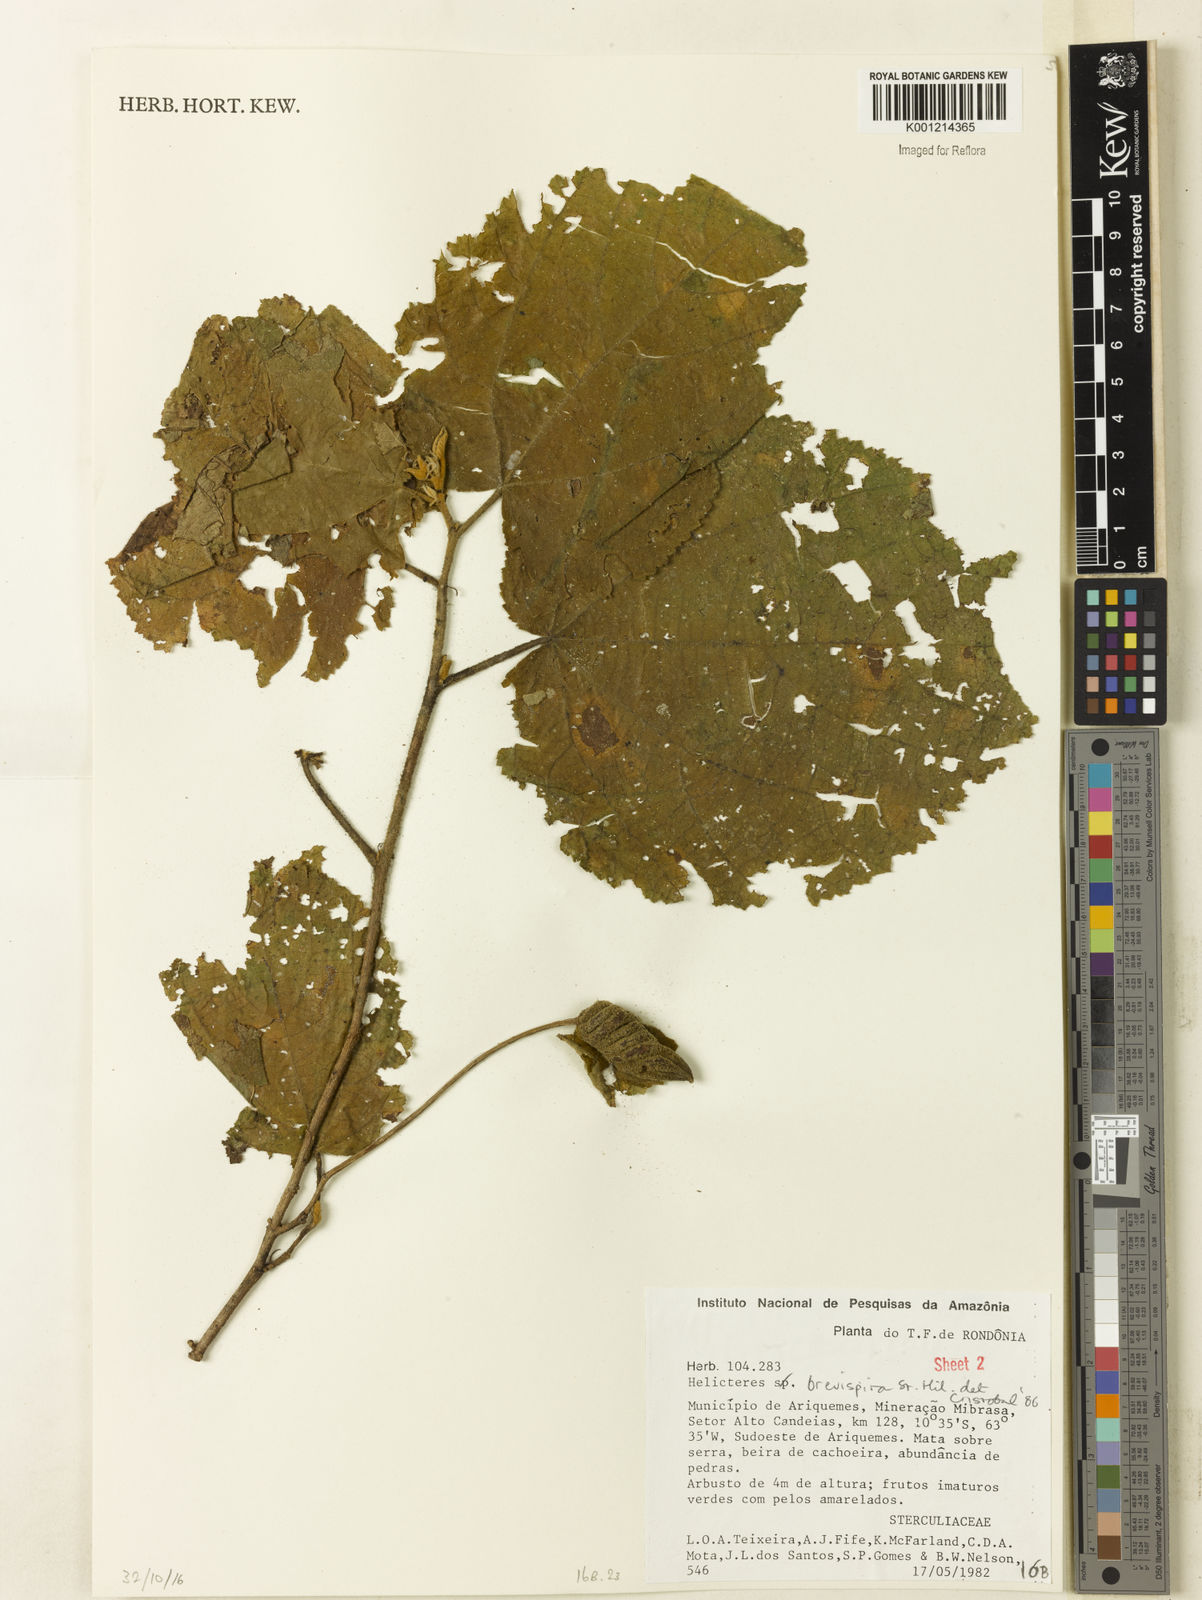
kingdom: Plantae
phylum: Tracheophyta
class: Magnoliopsida
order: Malvales
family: Malvaceae
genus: Helicteres
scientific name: Helicteres
